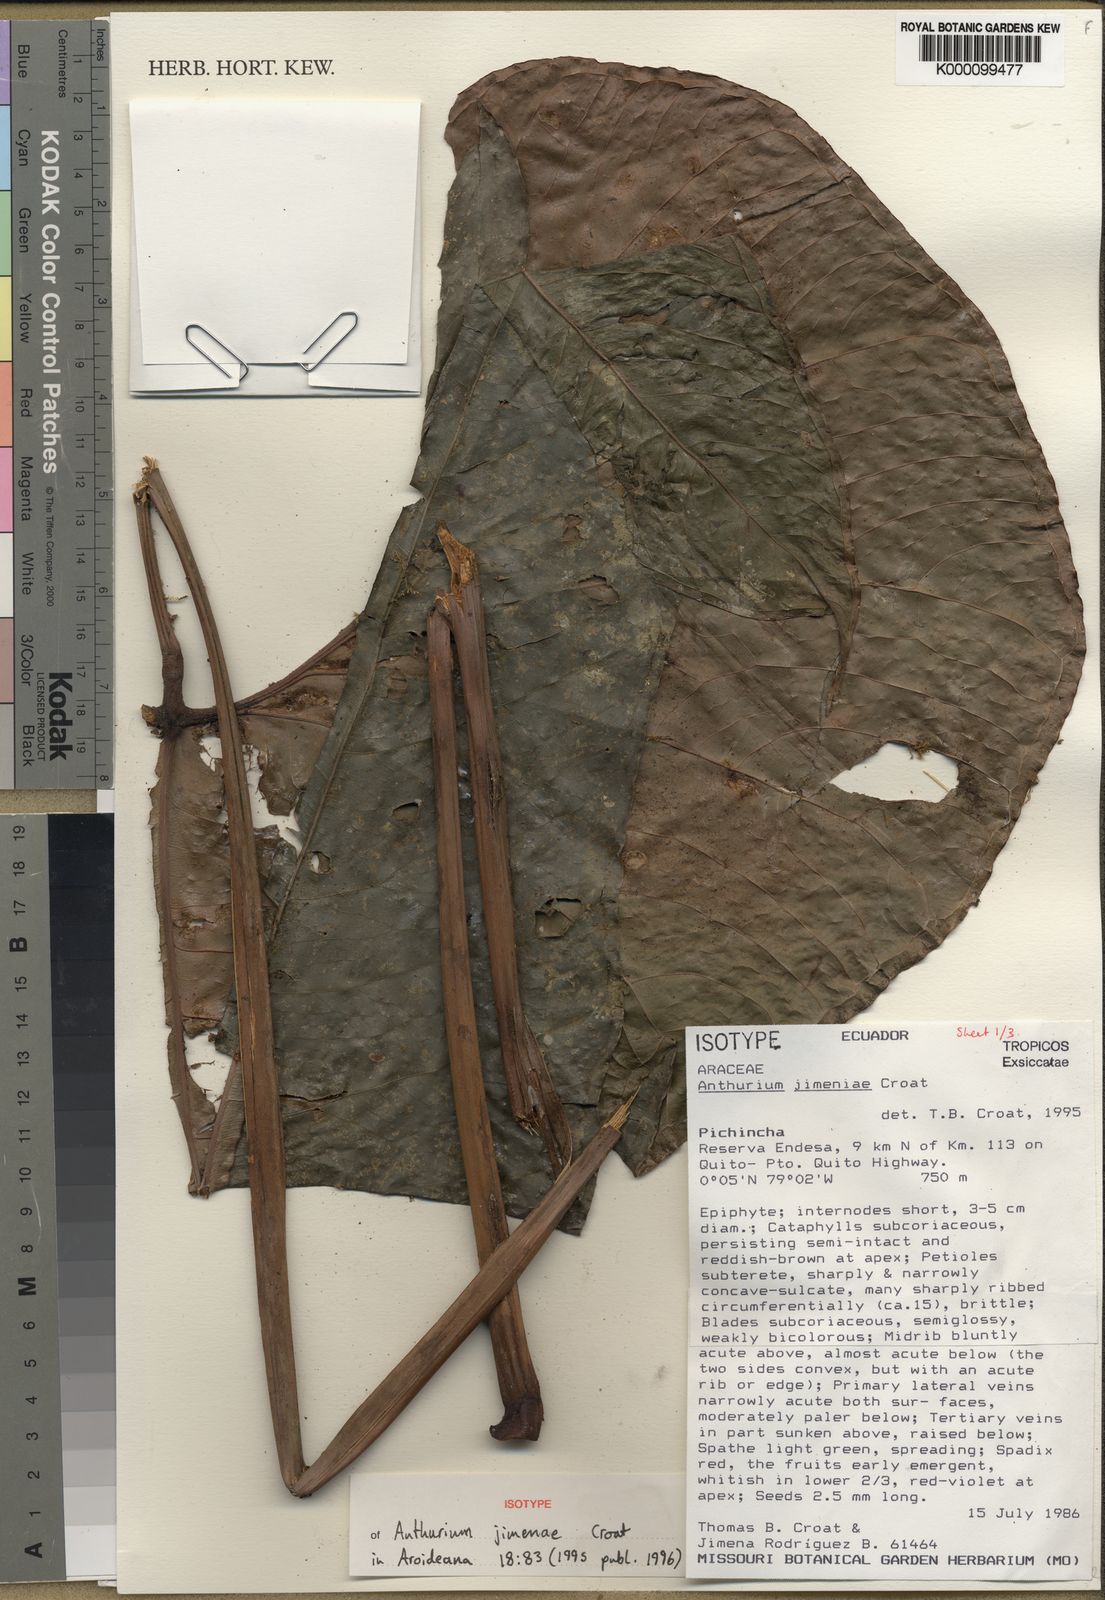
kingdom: Plantae
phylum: Tracheophyta
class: Liliopsida
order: Alismatales
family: Araceae
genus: Anthurium
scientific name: Anthurium jimenae
